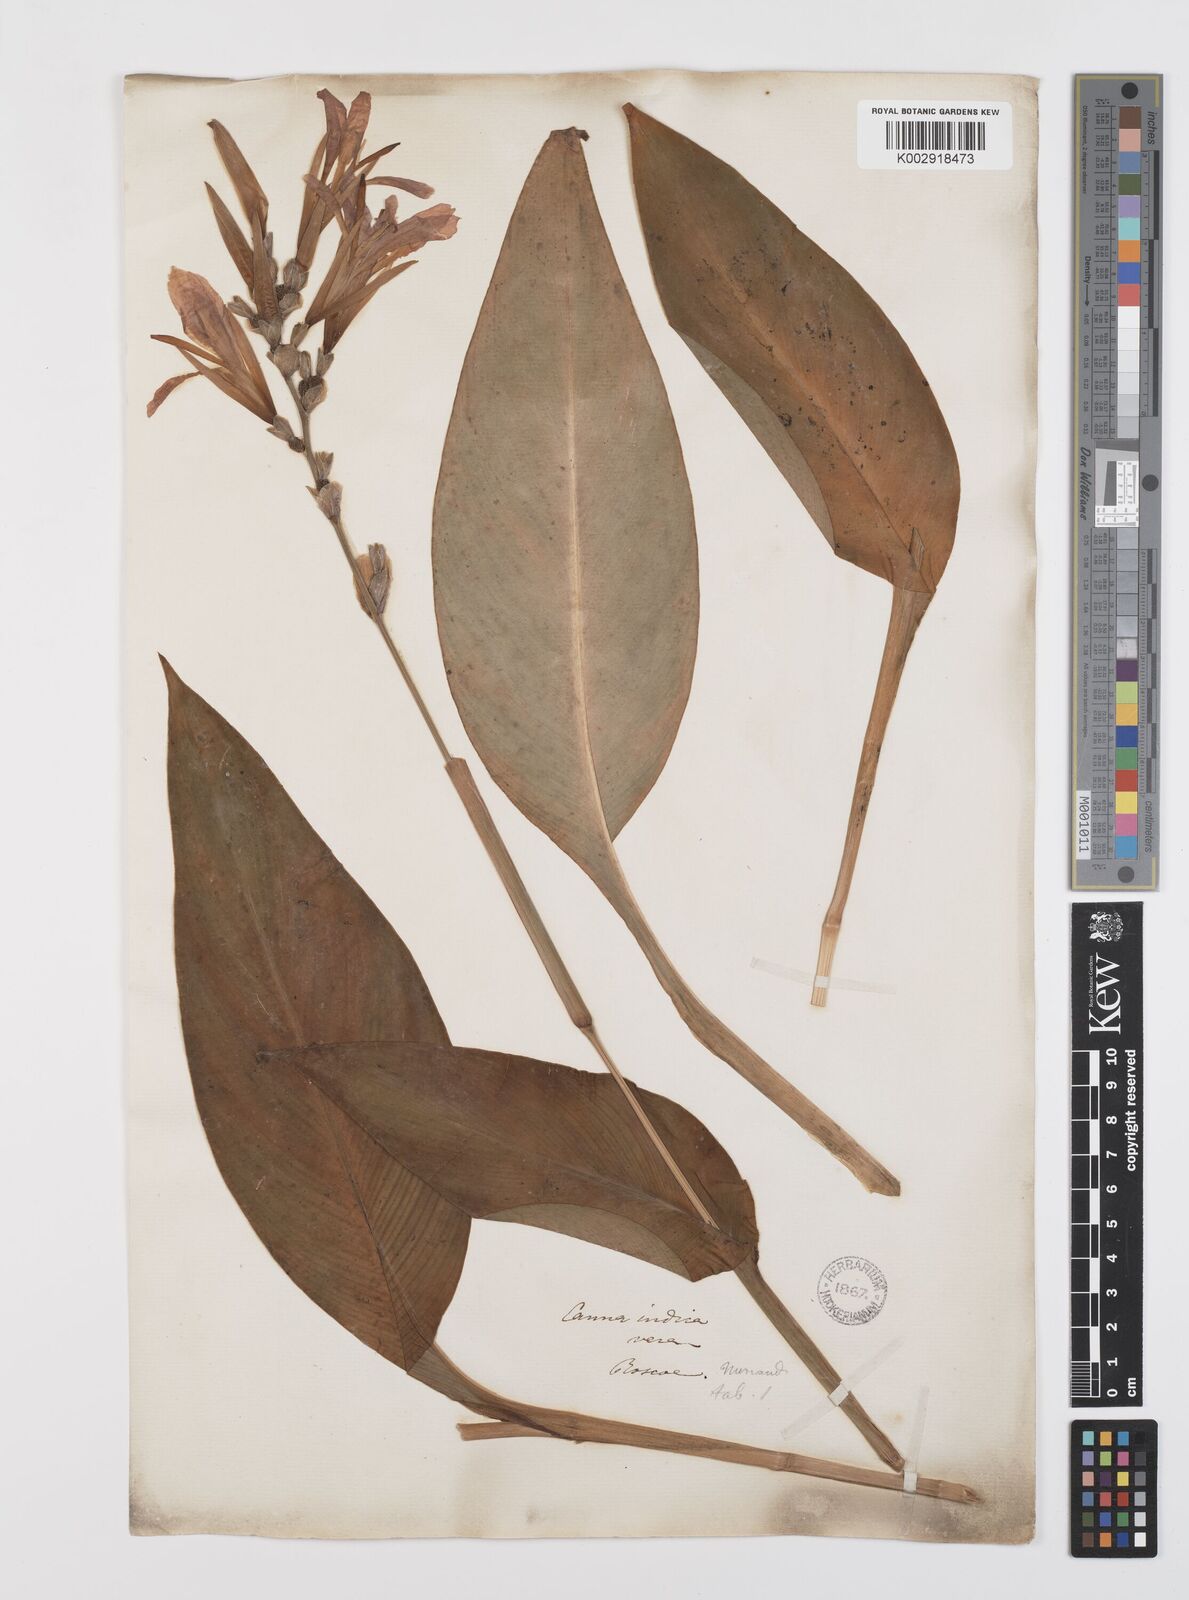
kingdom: Plantae
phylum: Tracheophyta
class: Liliopsida
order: Zingiberales
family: Cannaceae
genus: Canna
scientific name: Canna indica
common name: Indian shot
